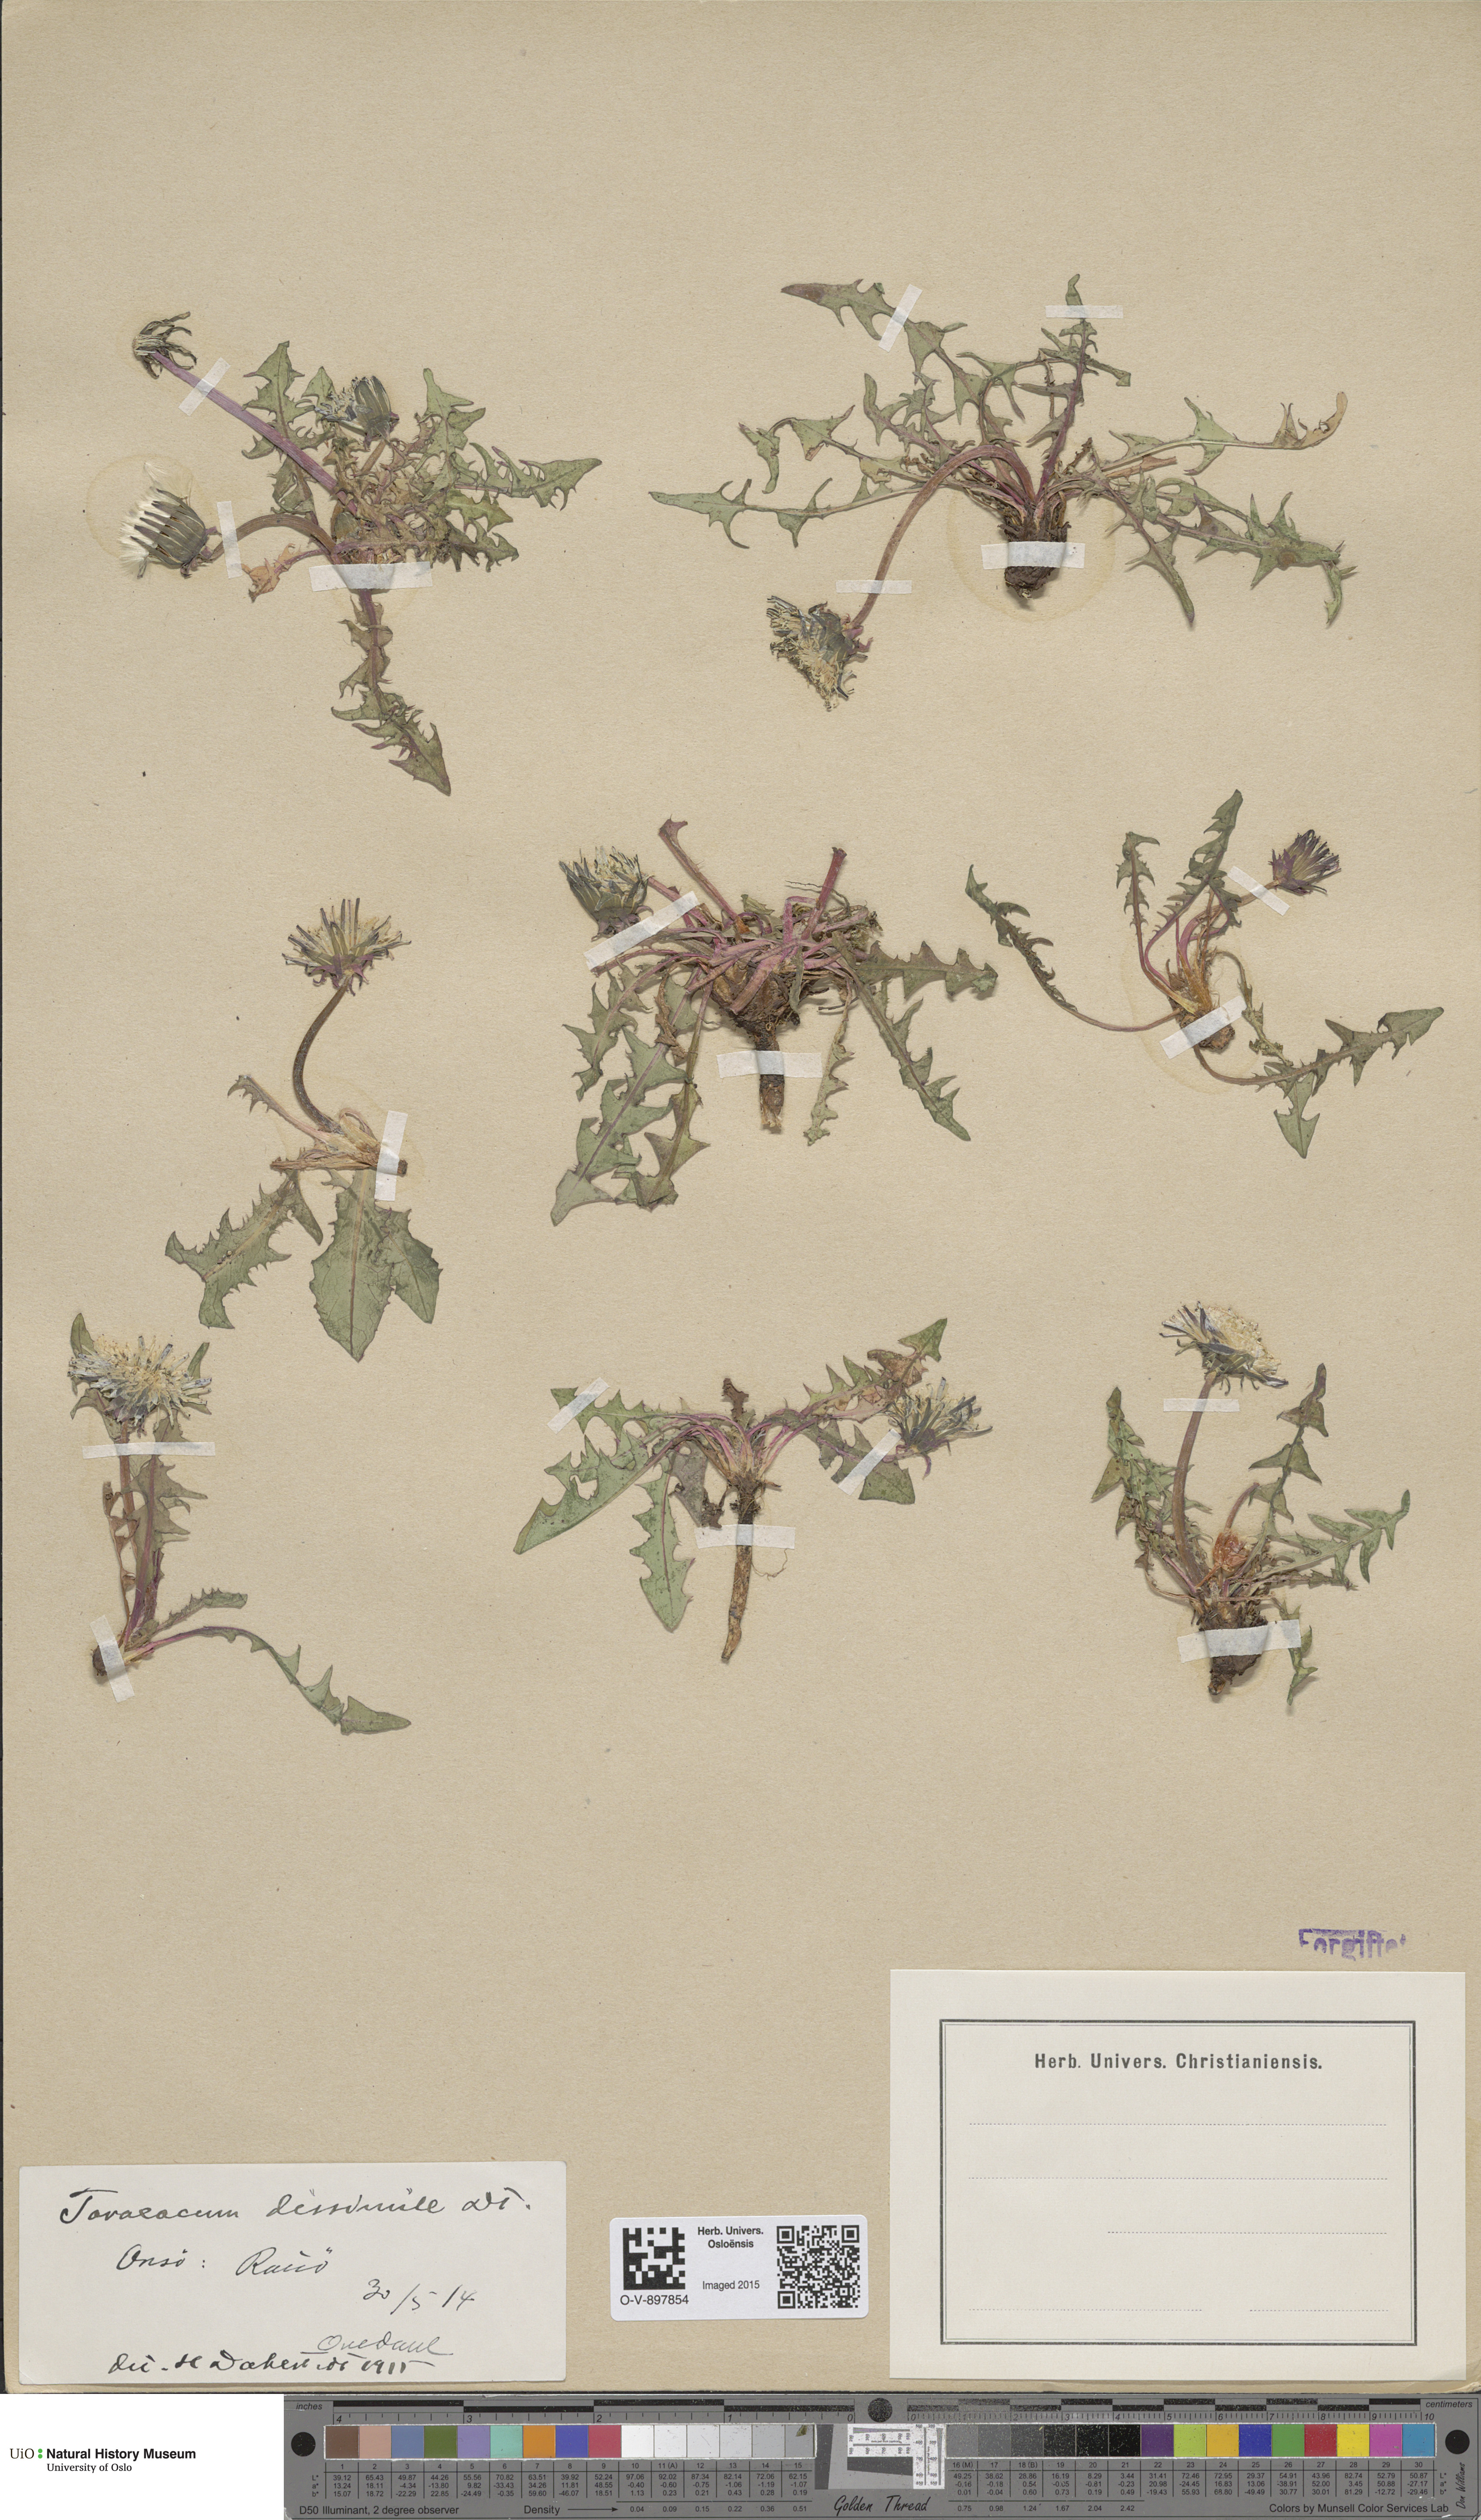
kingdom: Plantae
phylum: Tracheophyta
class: Magnoliopsida
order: Asterales
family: Asteraceae
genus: Taraxacum
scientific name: Taraxacum dissimile
